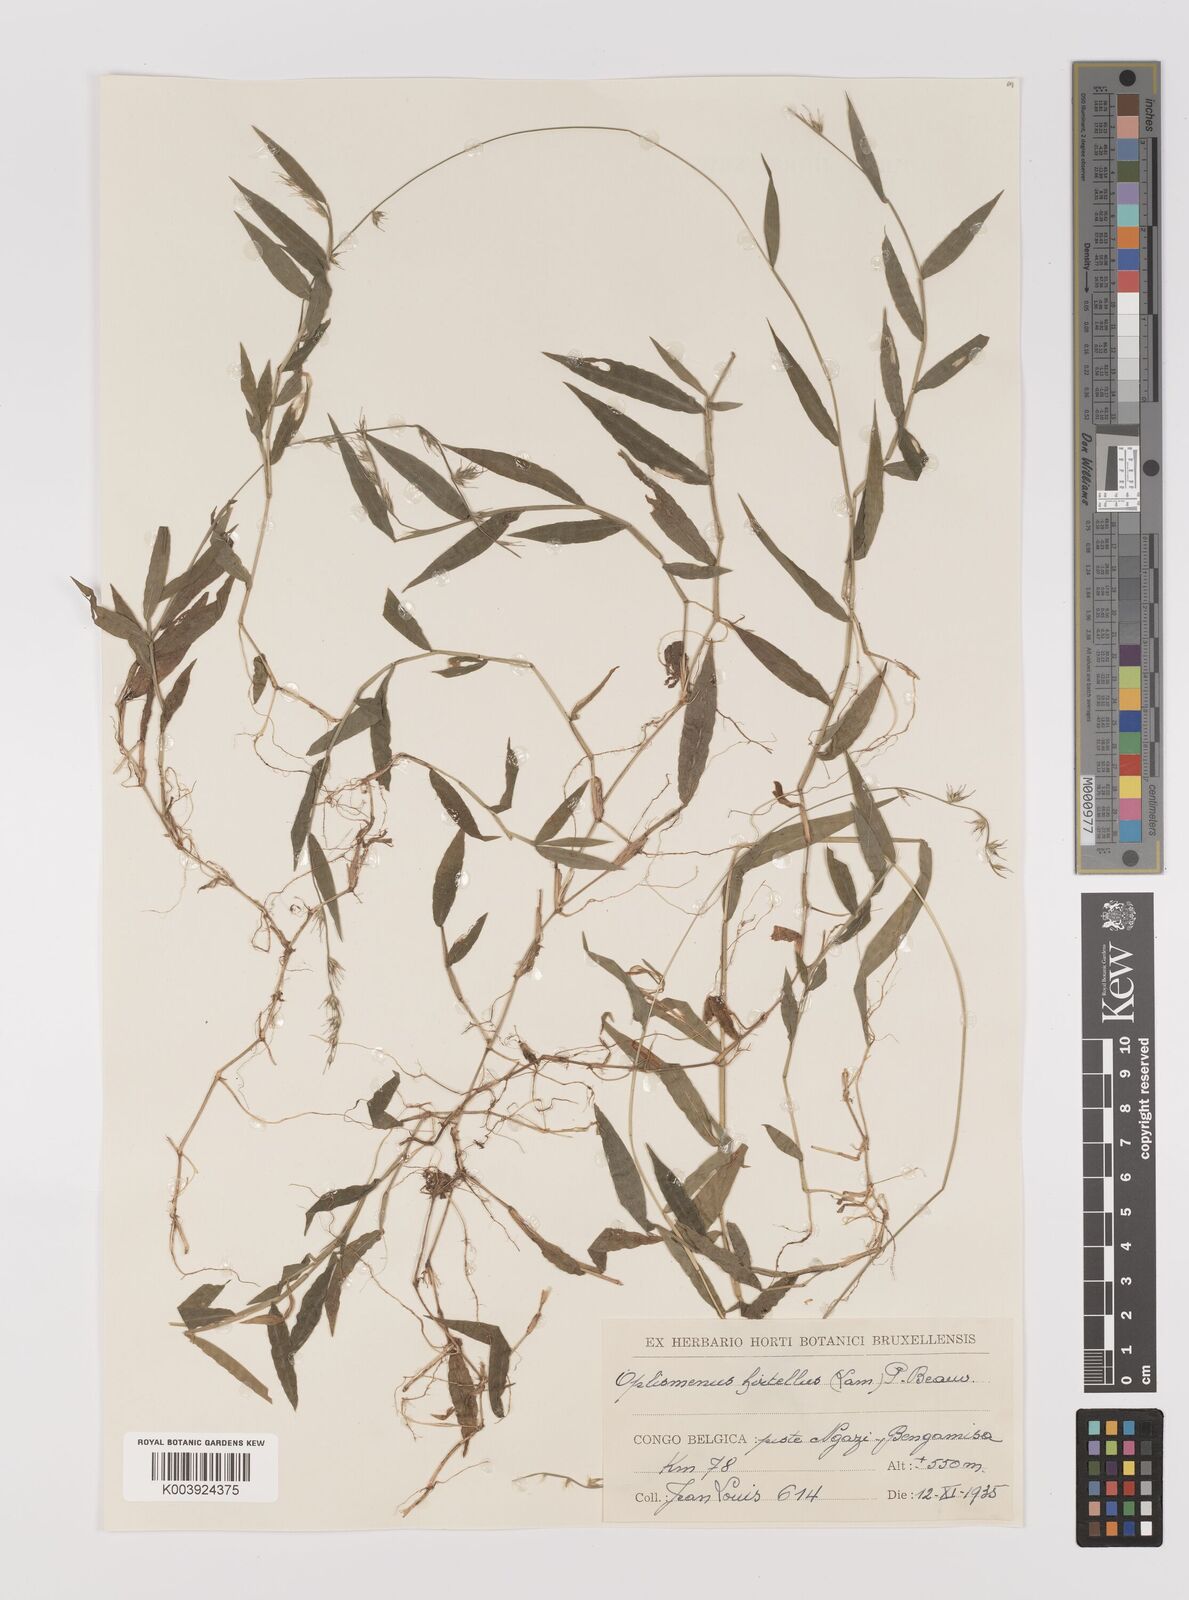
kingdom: Plantae
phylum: Tracheophyta
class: Liliopsida
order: Poales
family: Poaceae
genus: Oplismenus
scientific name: Oplismenus hirtellus
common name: Basketgrass
